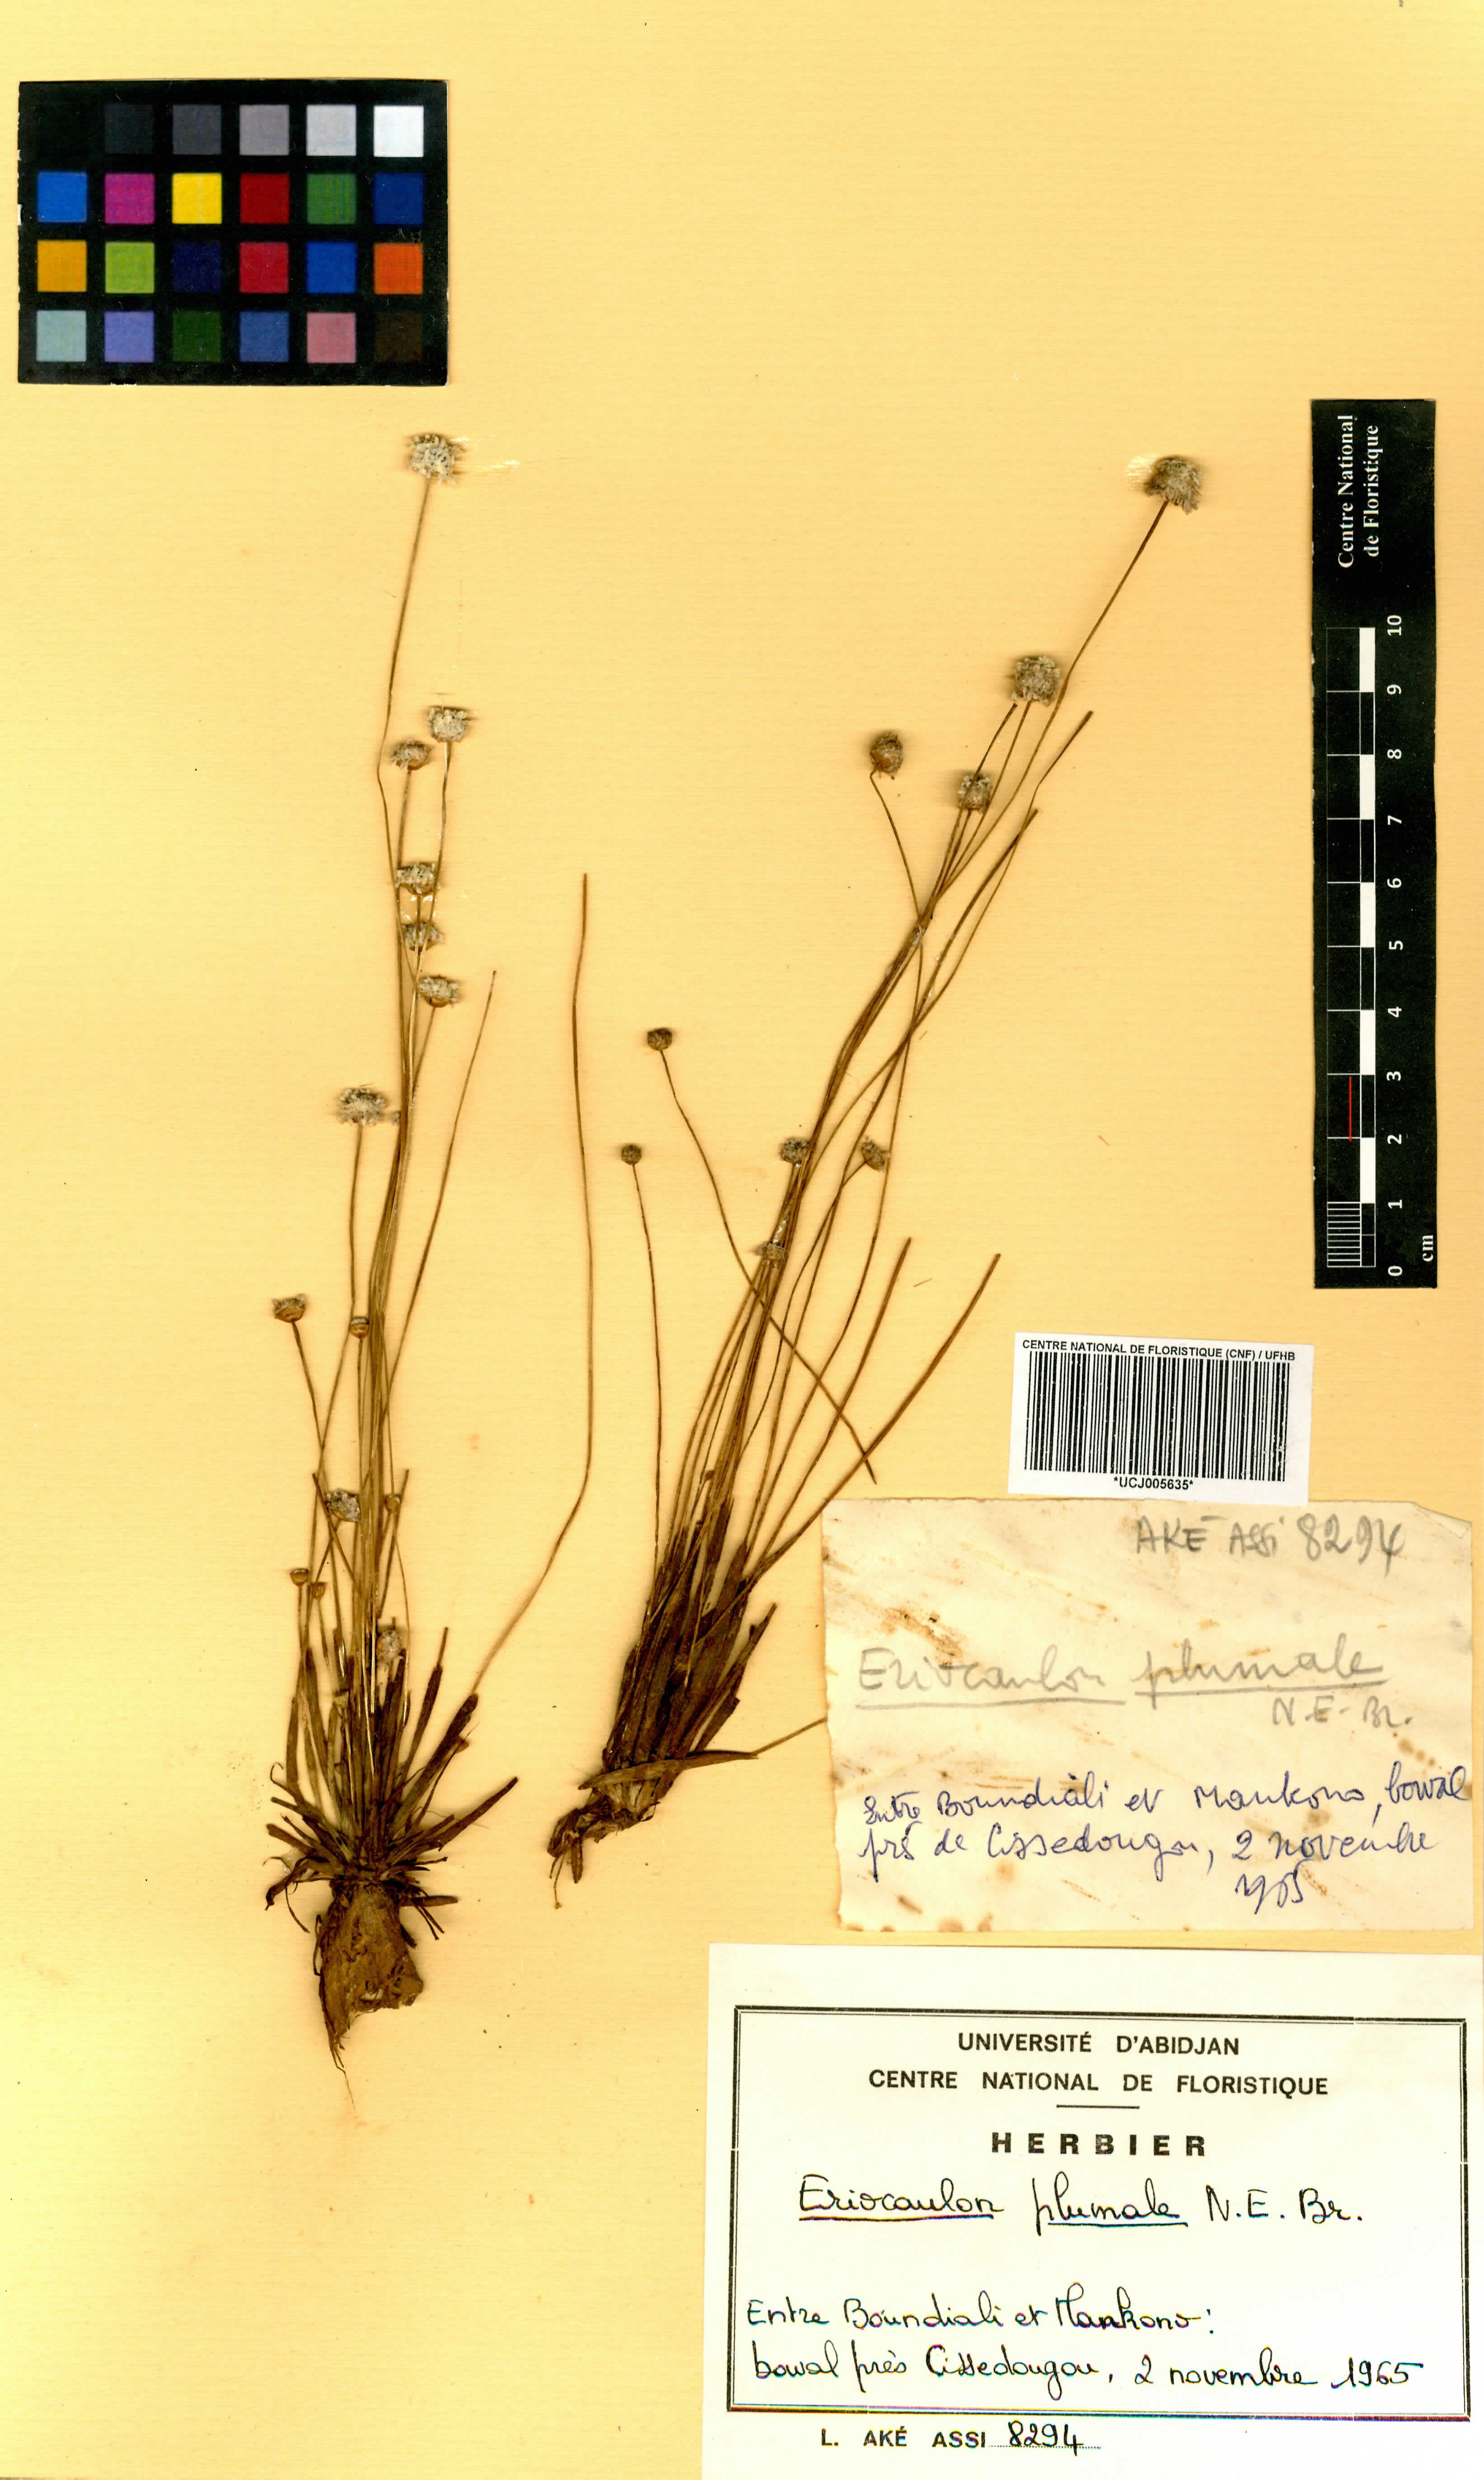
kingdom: Plantae
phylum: Tracheophyta
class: Liliopsida
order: Poales
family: Eriocaulaceae
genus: Eriocaulon
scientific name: Eriocaulon plumale
